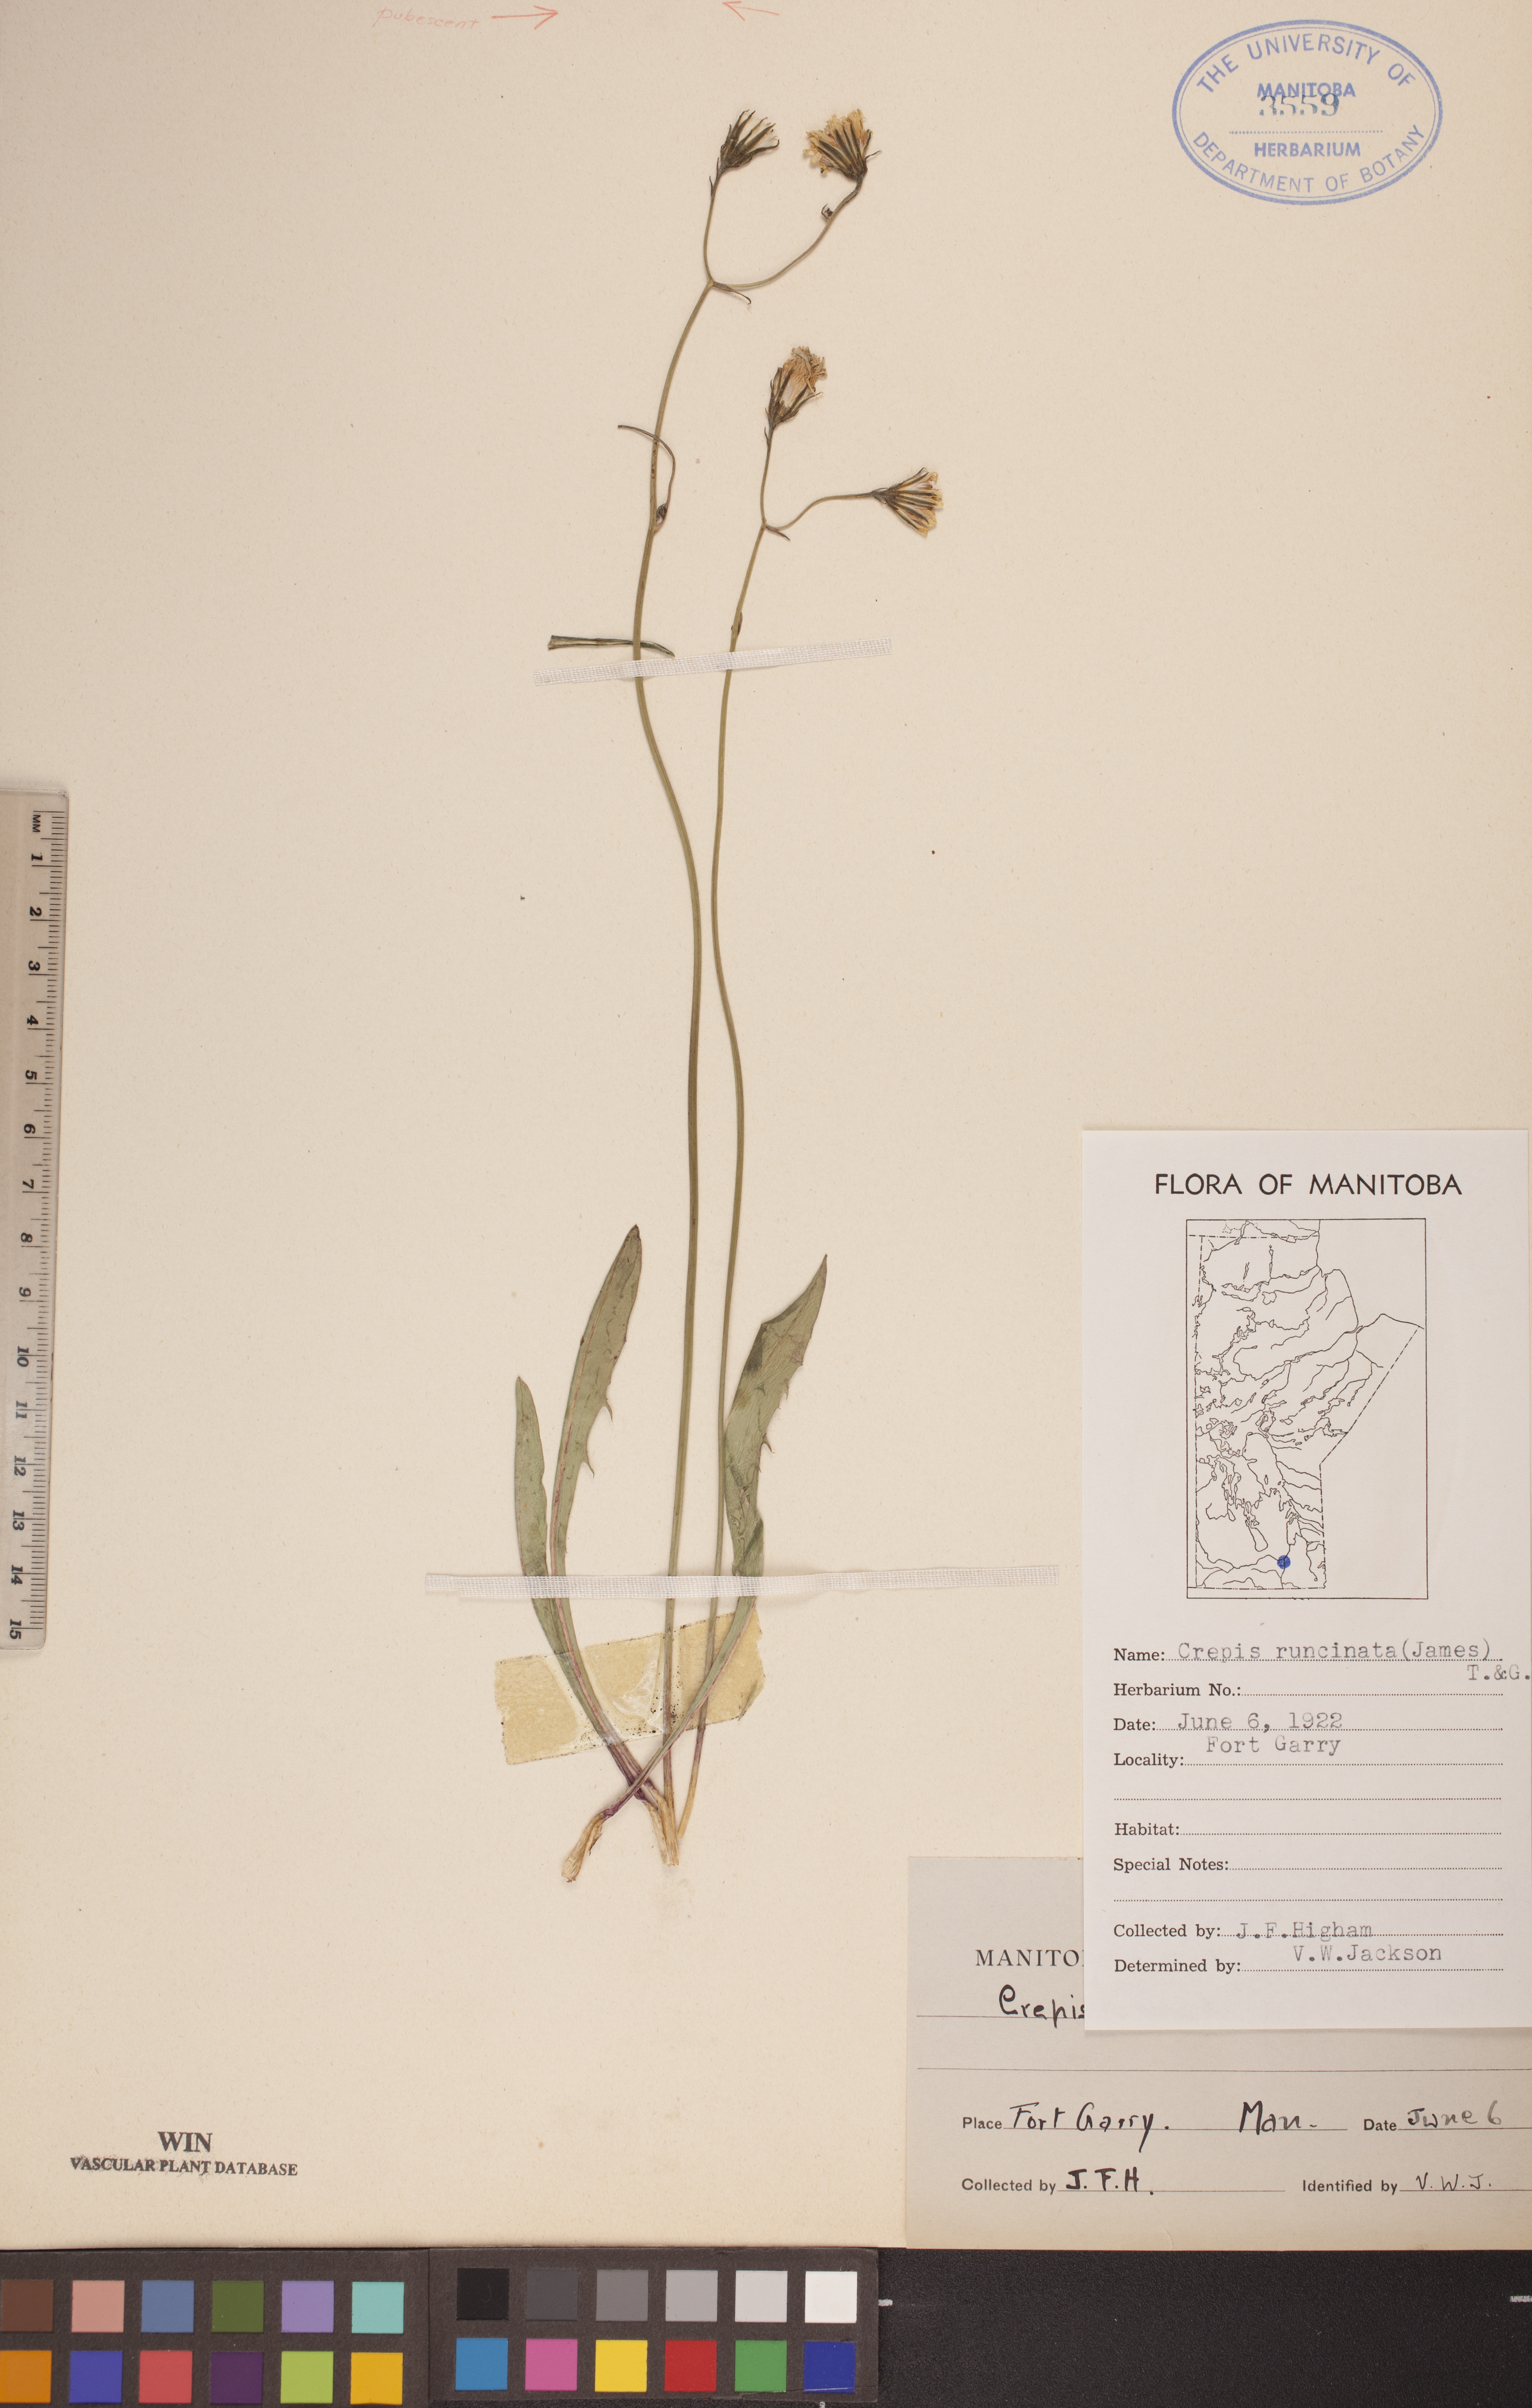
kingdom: Plantae
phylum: Tracheophyta
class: Magnoliopsida
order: Asterales
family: Asteraceae
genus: Crepis
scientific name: Crepis runcinata
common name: Dandelion hawksbeard
